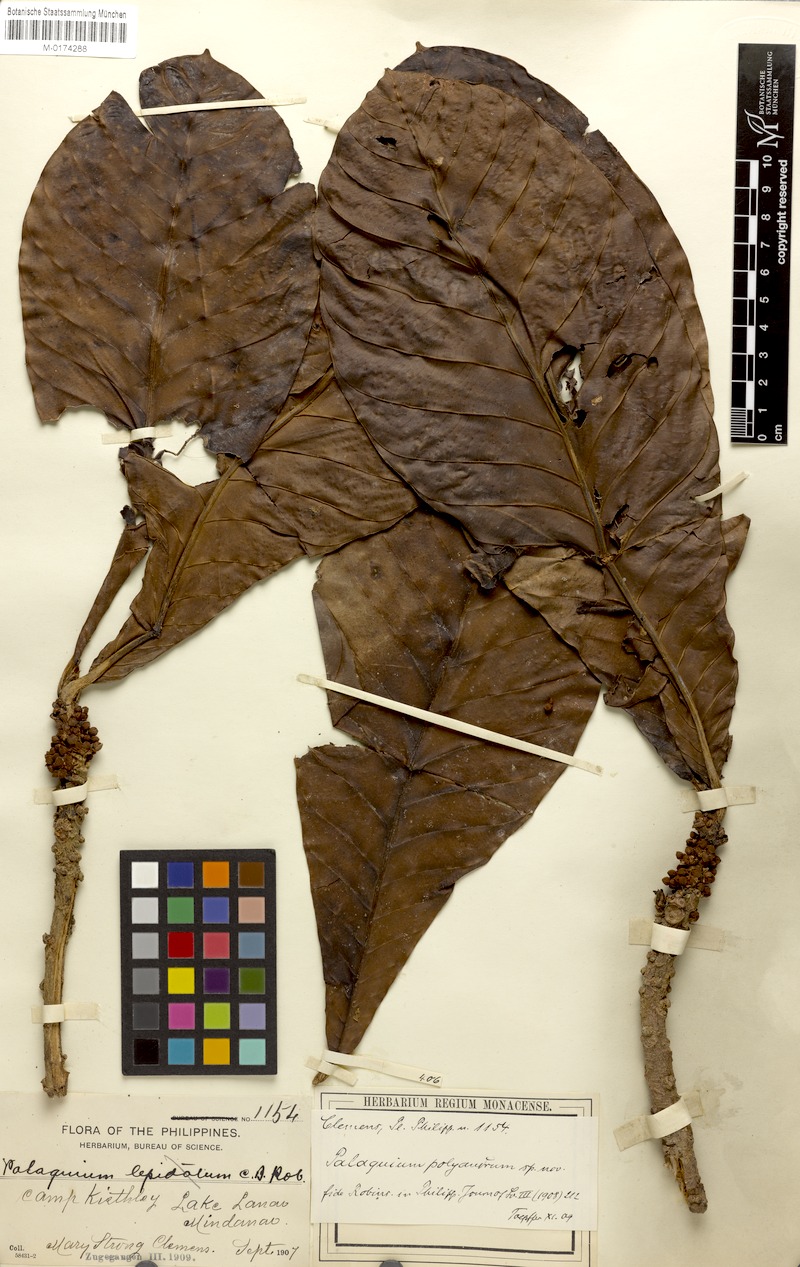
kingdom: Plantae
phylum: Tracheophyta
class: Magnoliopsida
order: Ericales
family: Sapotaceae
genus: Palaquium
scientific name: Palaquium polyandrum
